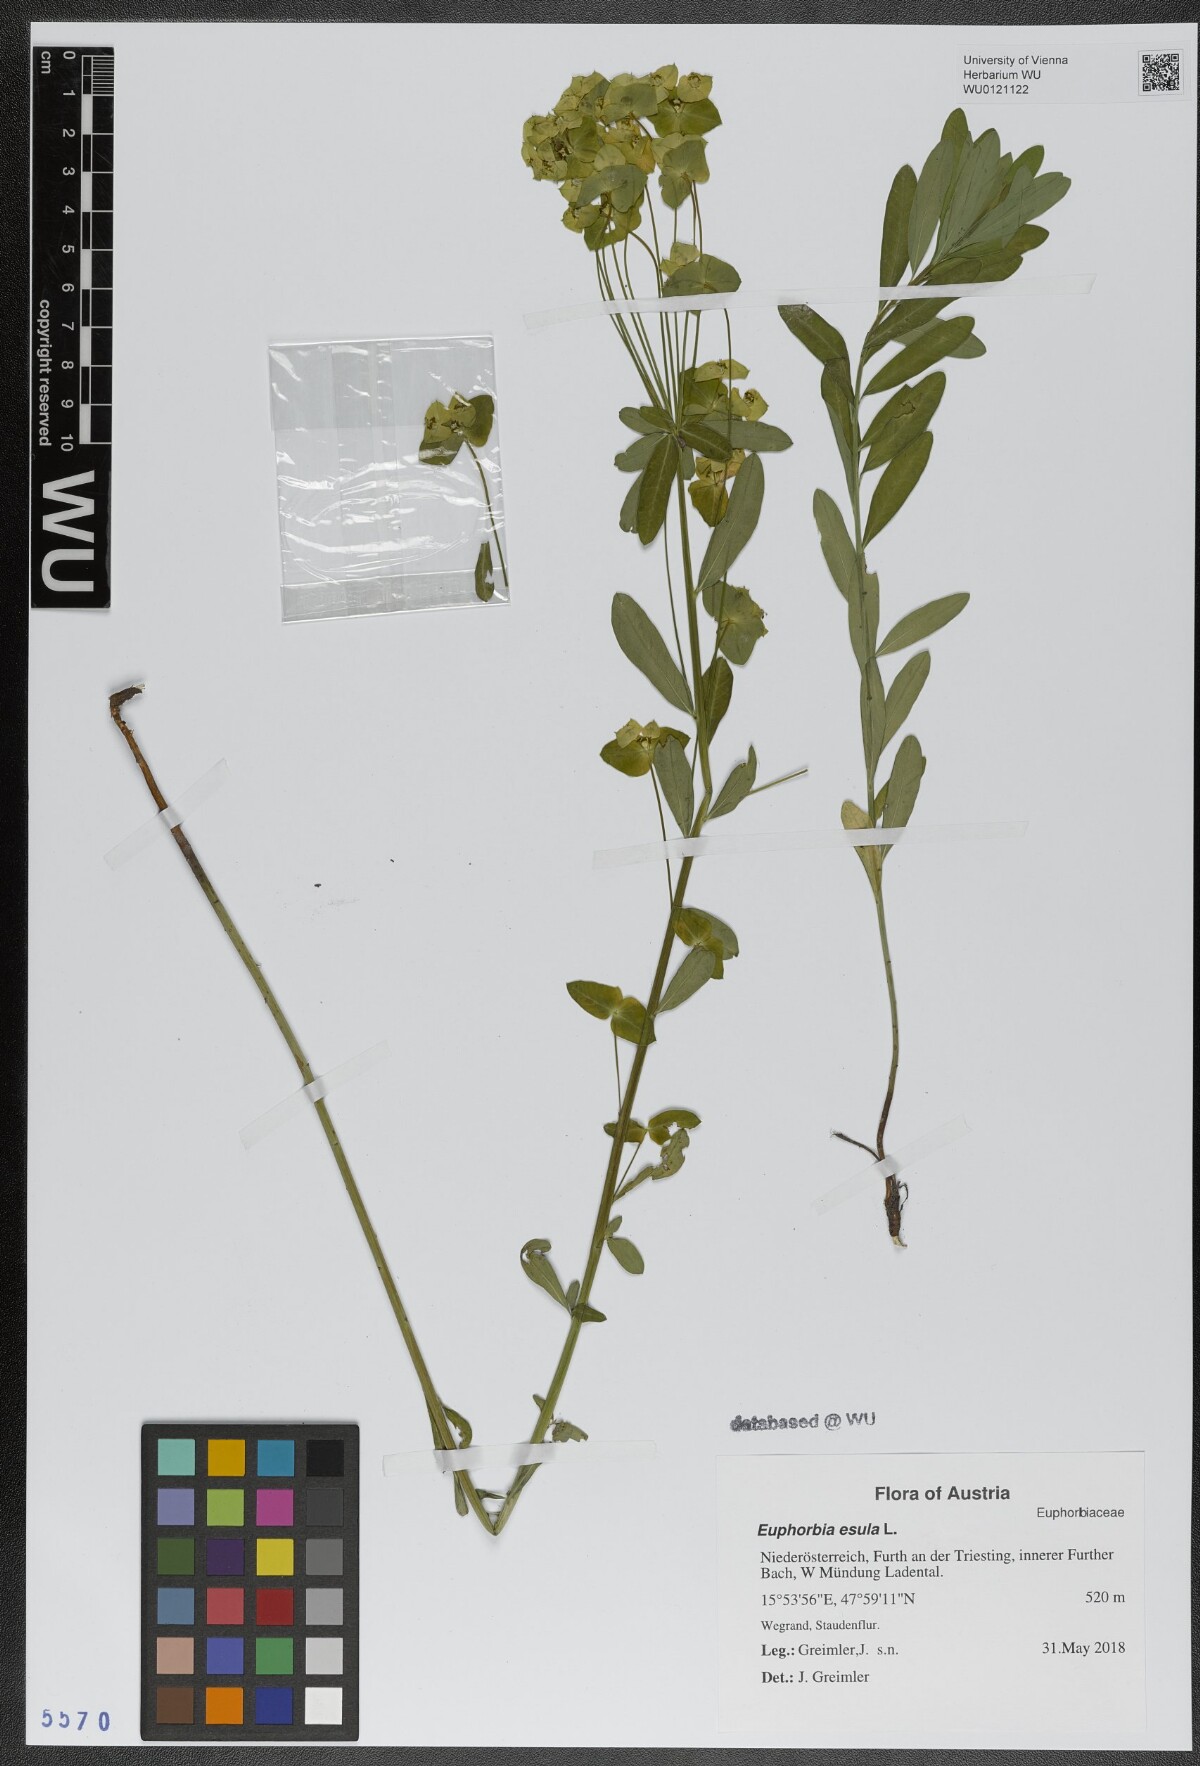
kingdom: Plantae
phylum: Tracheophyta
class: Magnoliopsida
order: Malpighiales
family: Euphorbiaceae
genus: Euphorbia
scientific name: Euphorbia esula
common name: Leafy spurge
